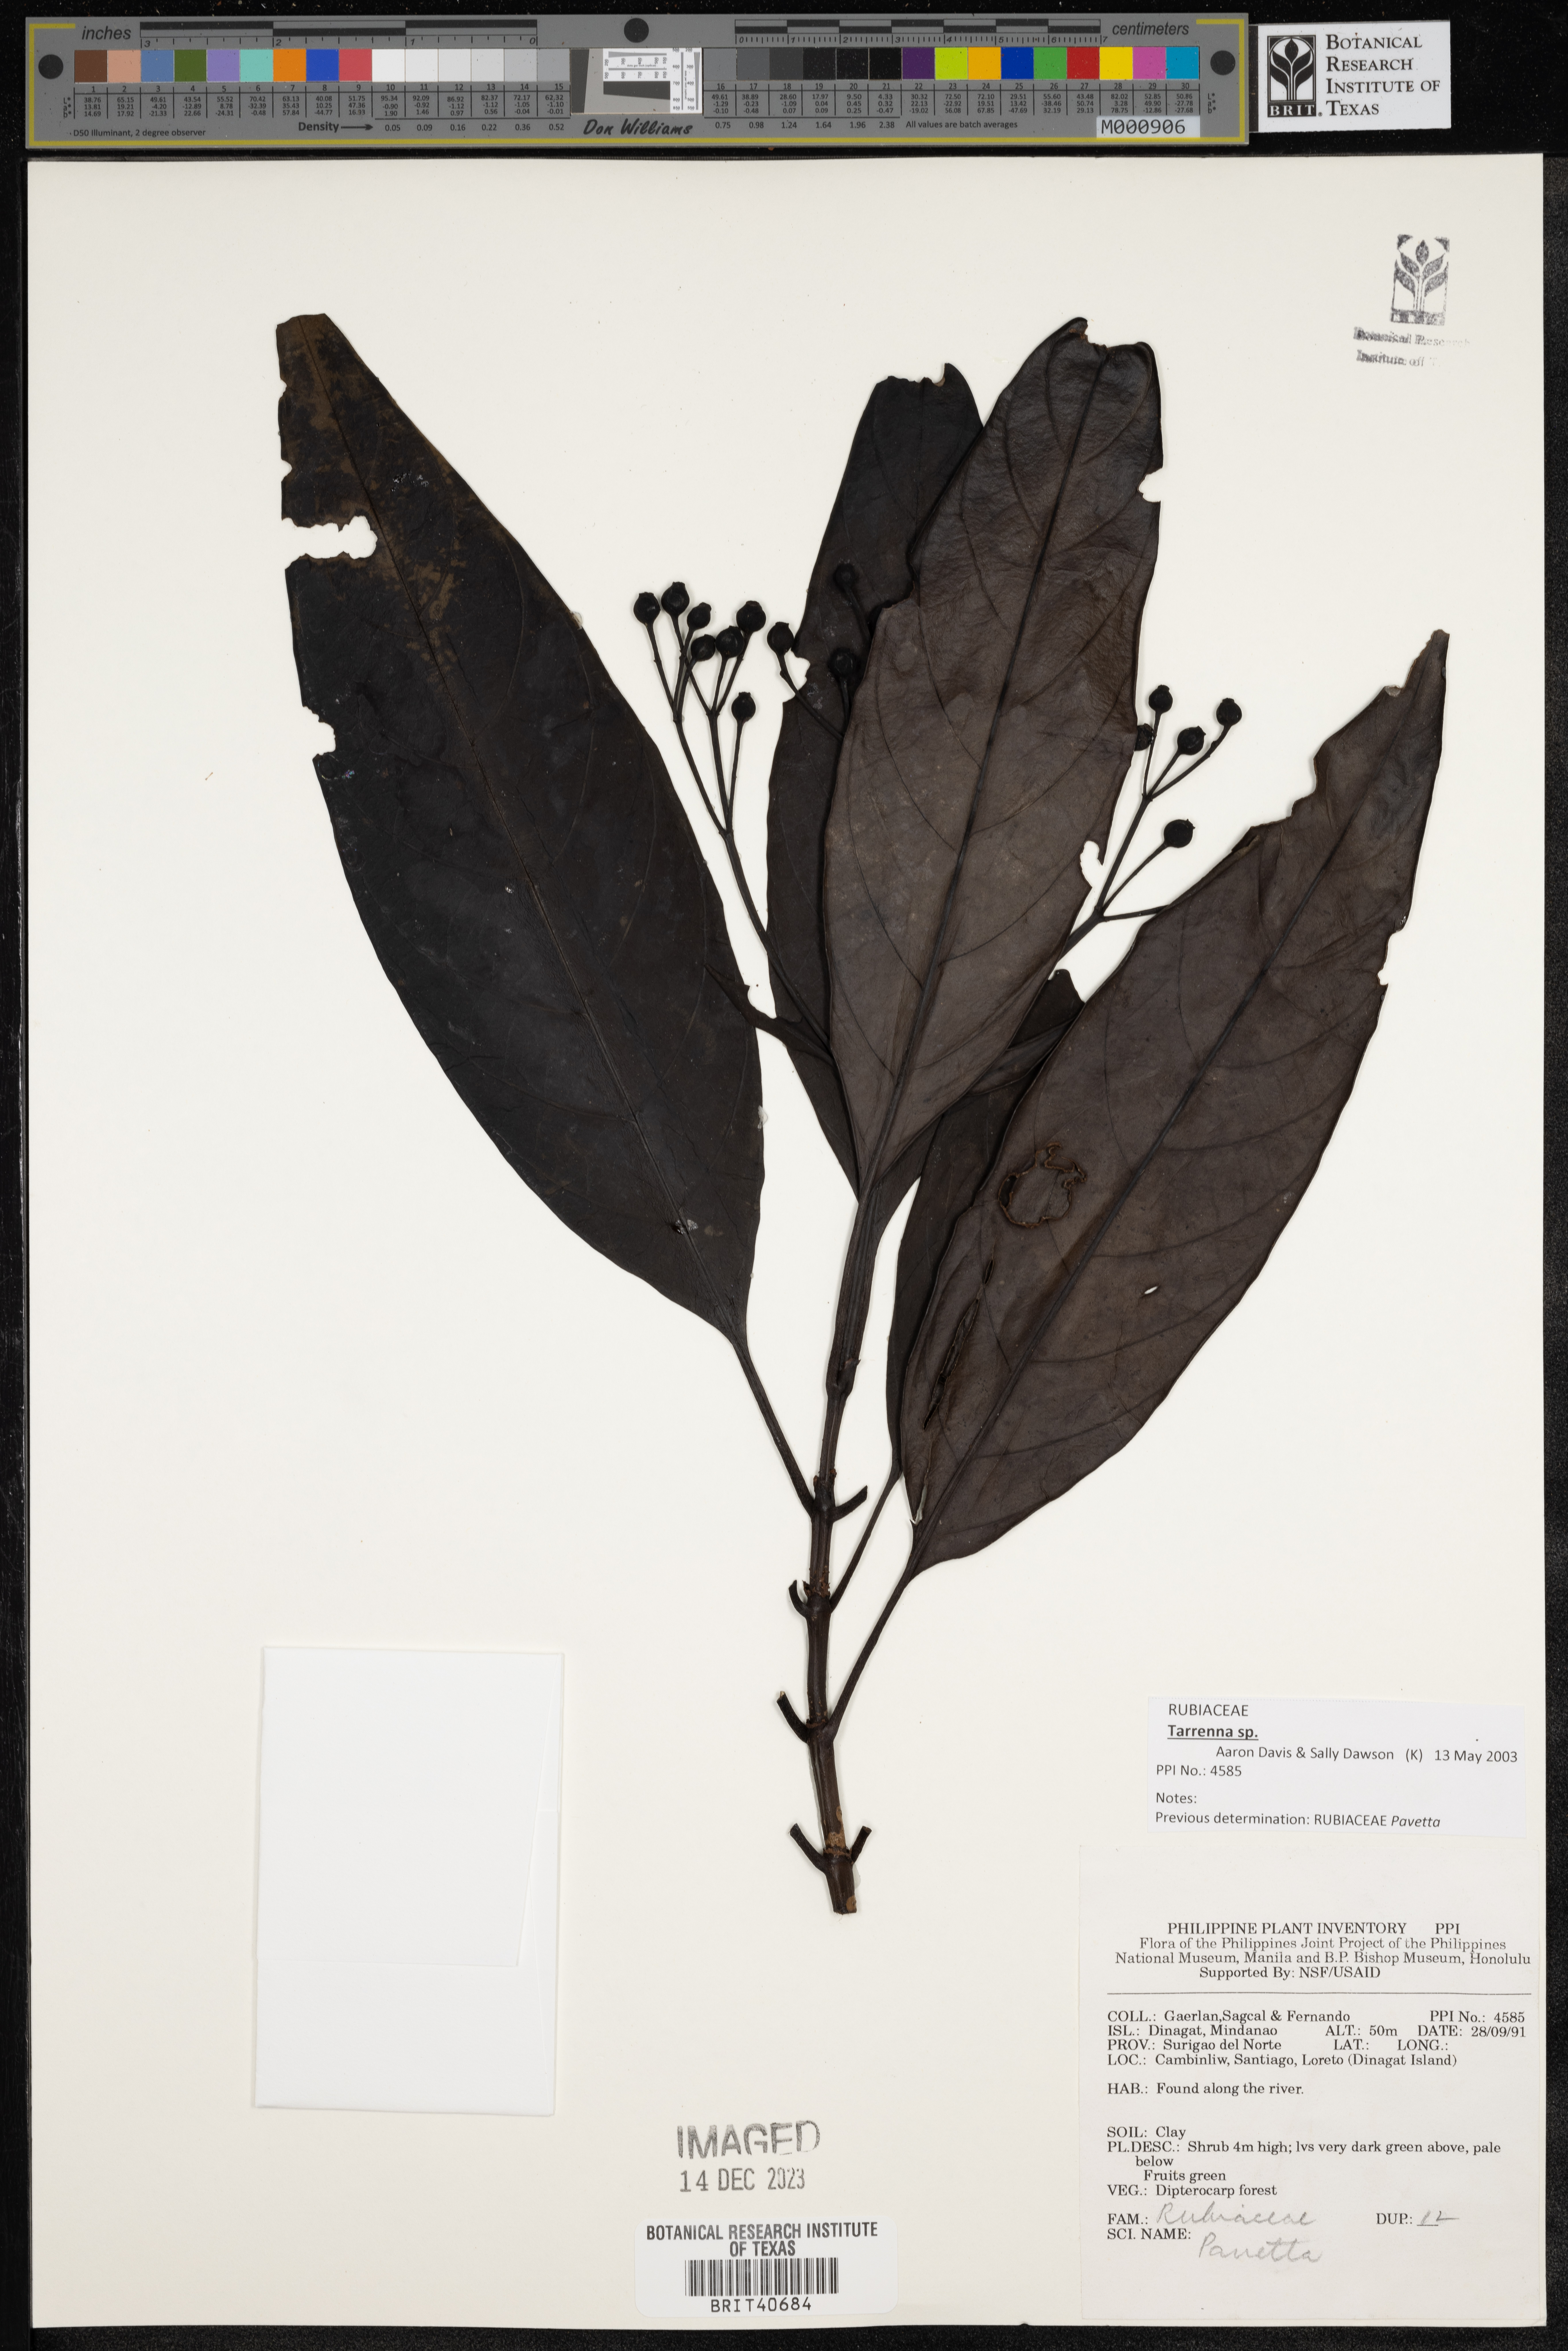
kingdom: Plantae
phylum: Tracheophyta
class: Magnoliopsida
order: Gentianales
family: Rubiaceae
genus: Pavetta
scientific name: Pavetta
